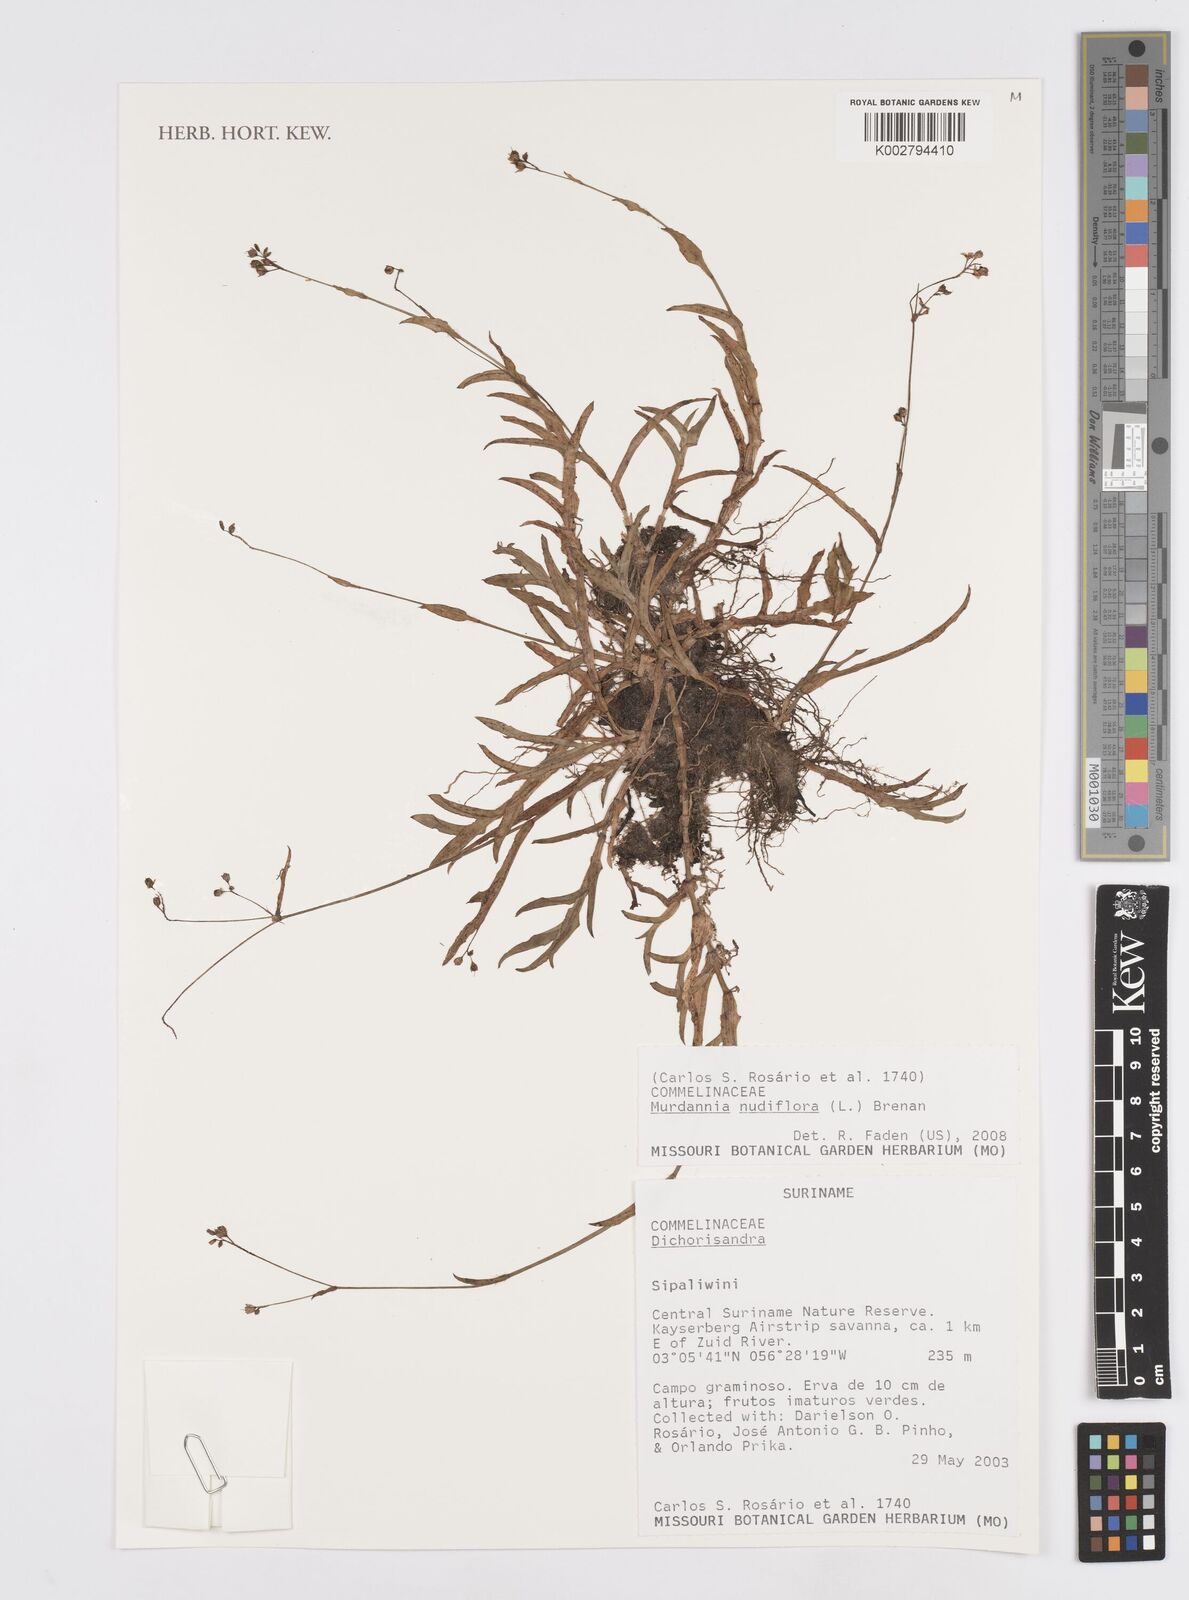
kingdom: Plantae
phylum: Tracheophyta
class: Liliopsida
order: Commelinales
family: Commelinaceae
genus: Murdannia
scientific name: Murdannia nudiflora
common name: Nakedstem dewflower
